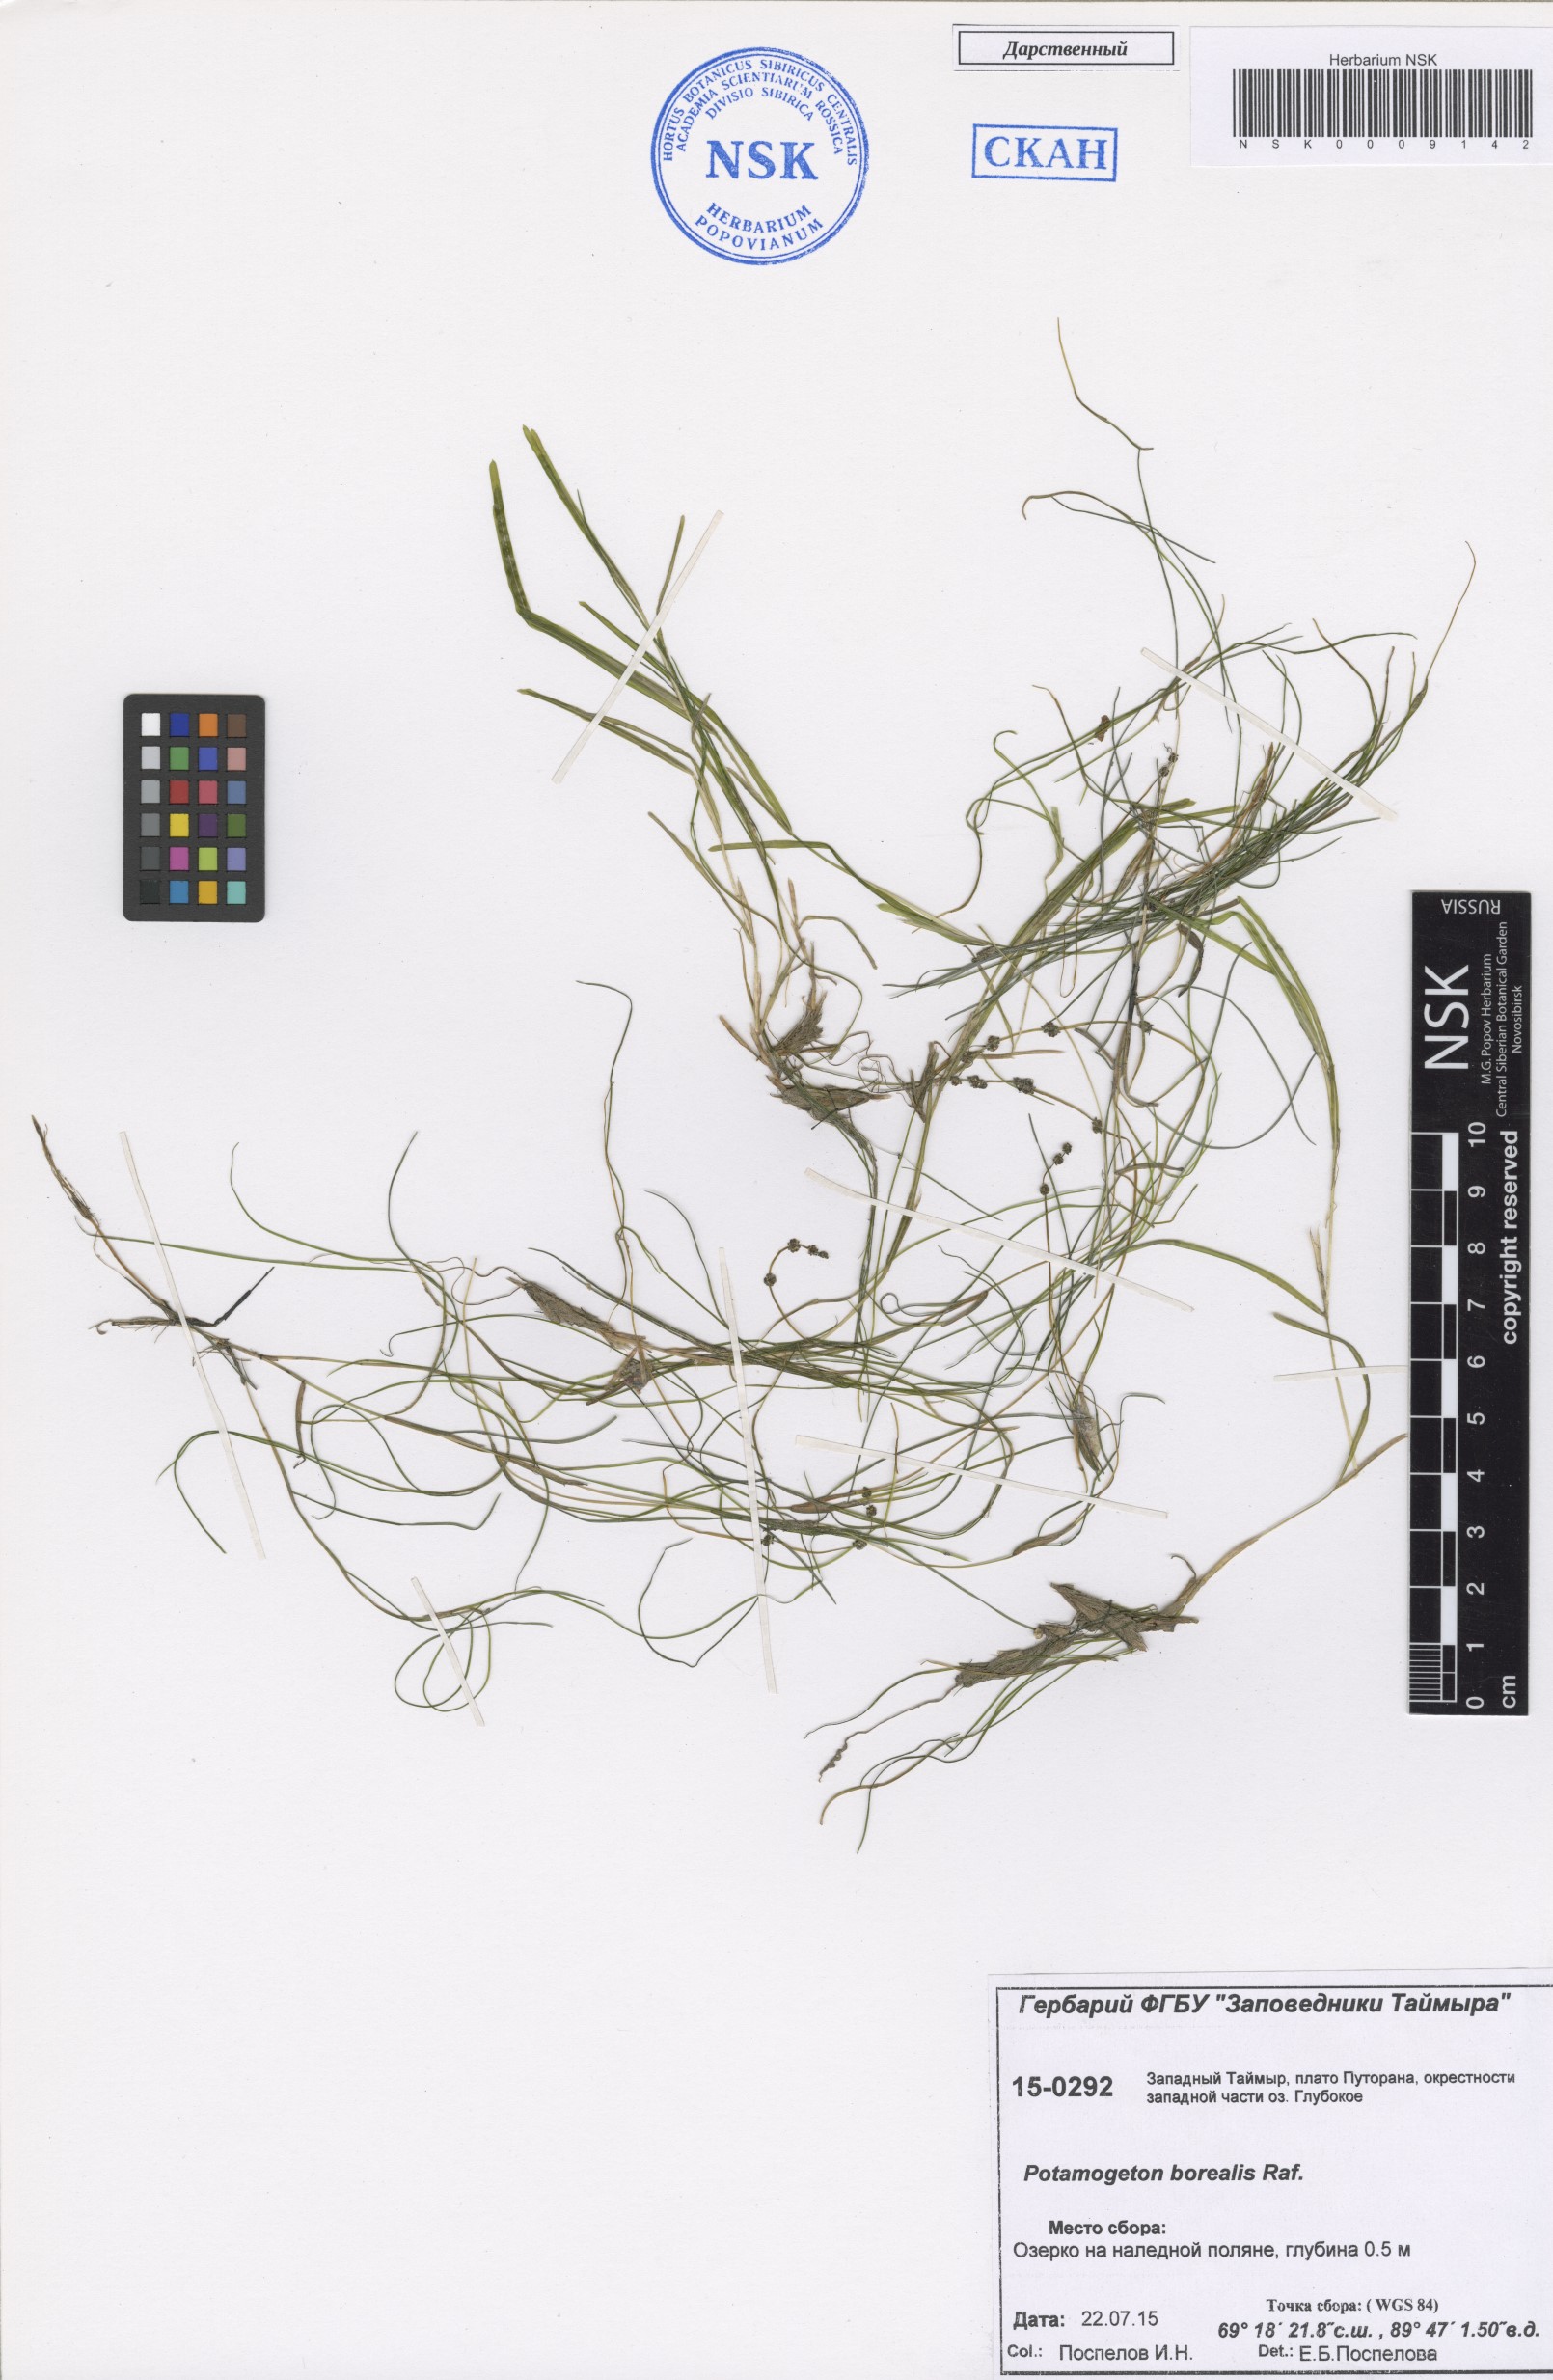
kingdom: Plantae
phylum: Tracheophyta
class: Liliopsida
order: Alismatales
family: Potamogetonaceae
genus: Stuckenia
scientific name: Stuckenia pectinata
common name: Sago pondweed
